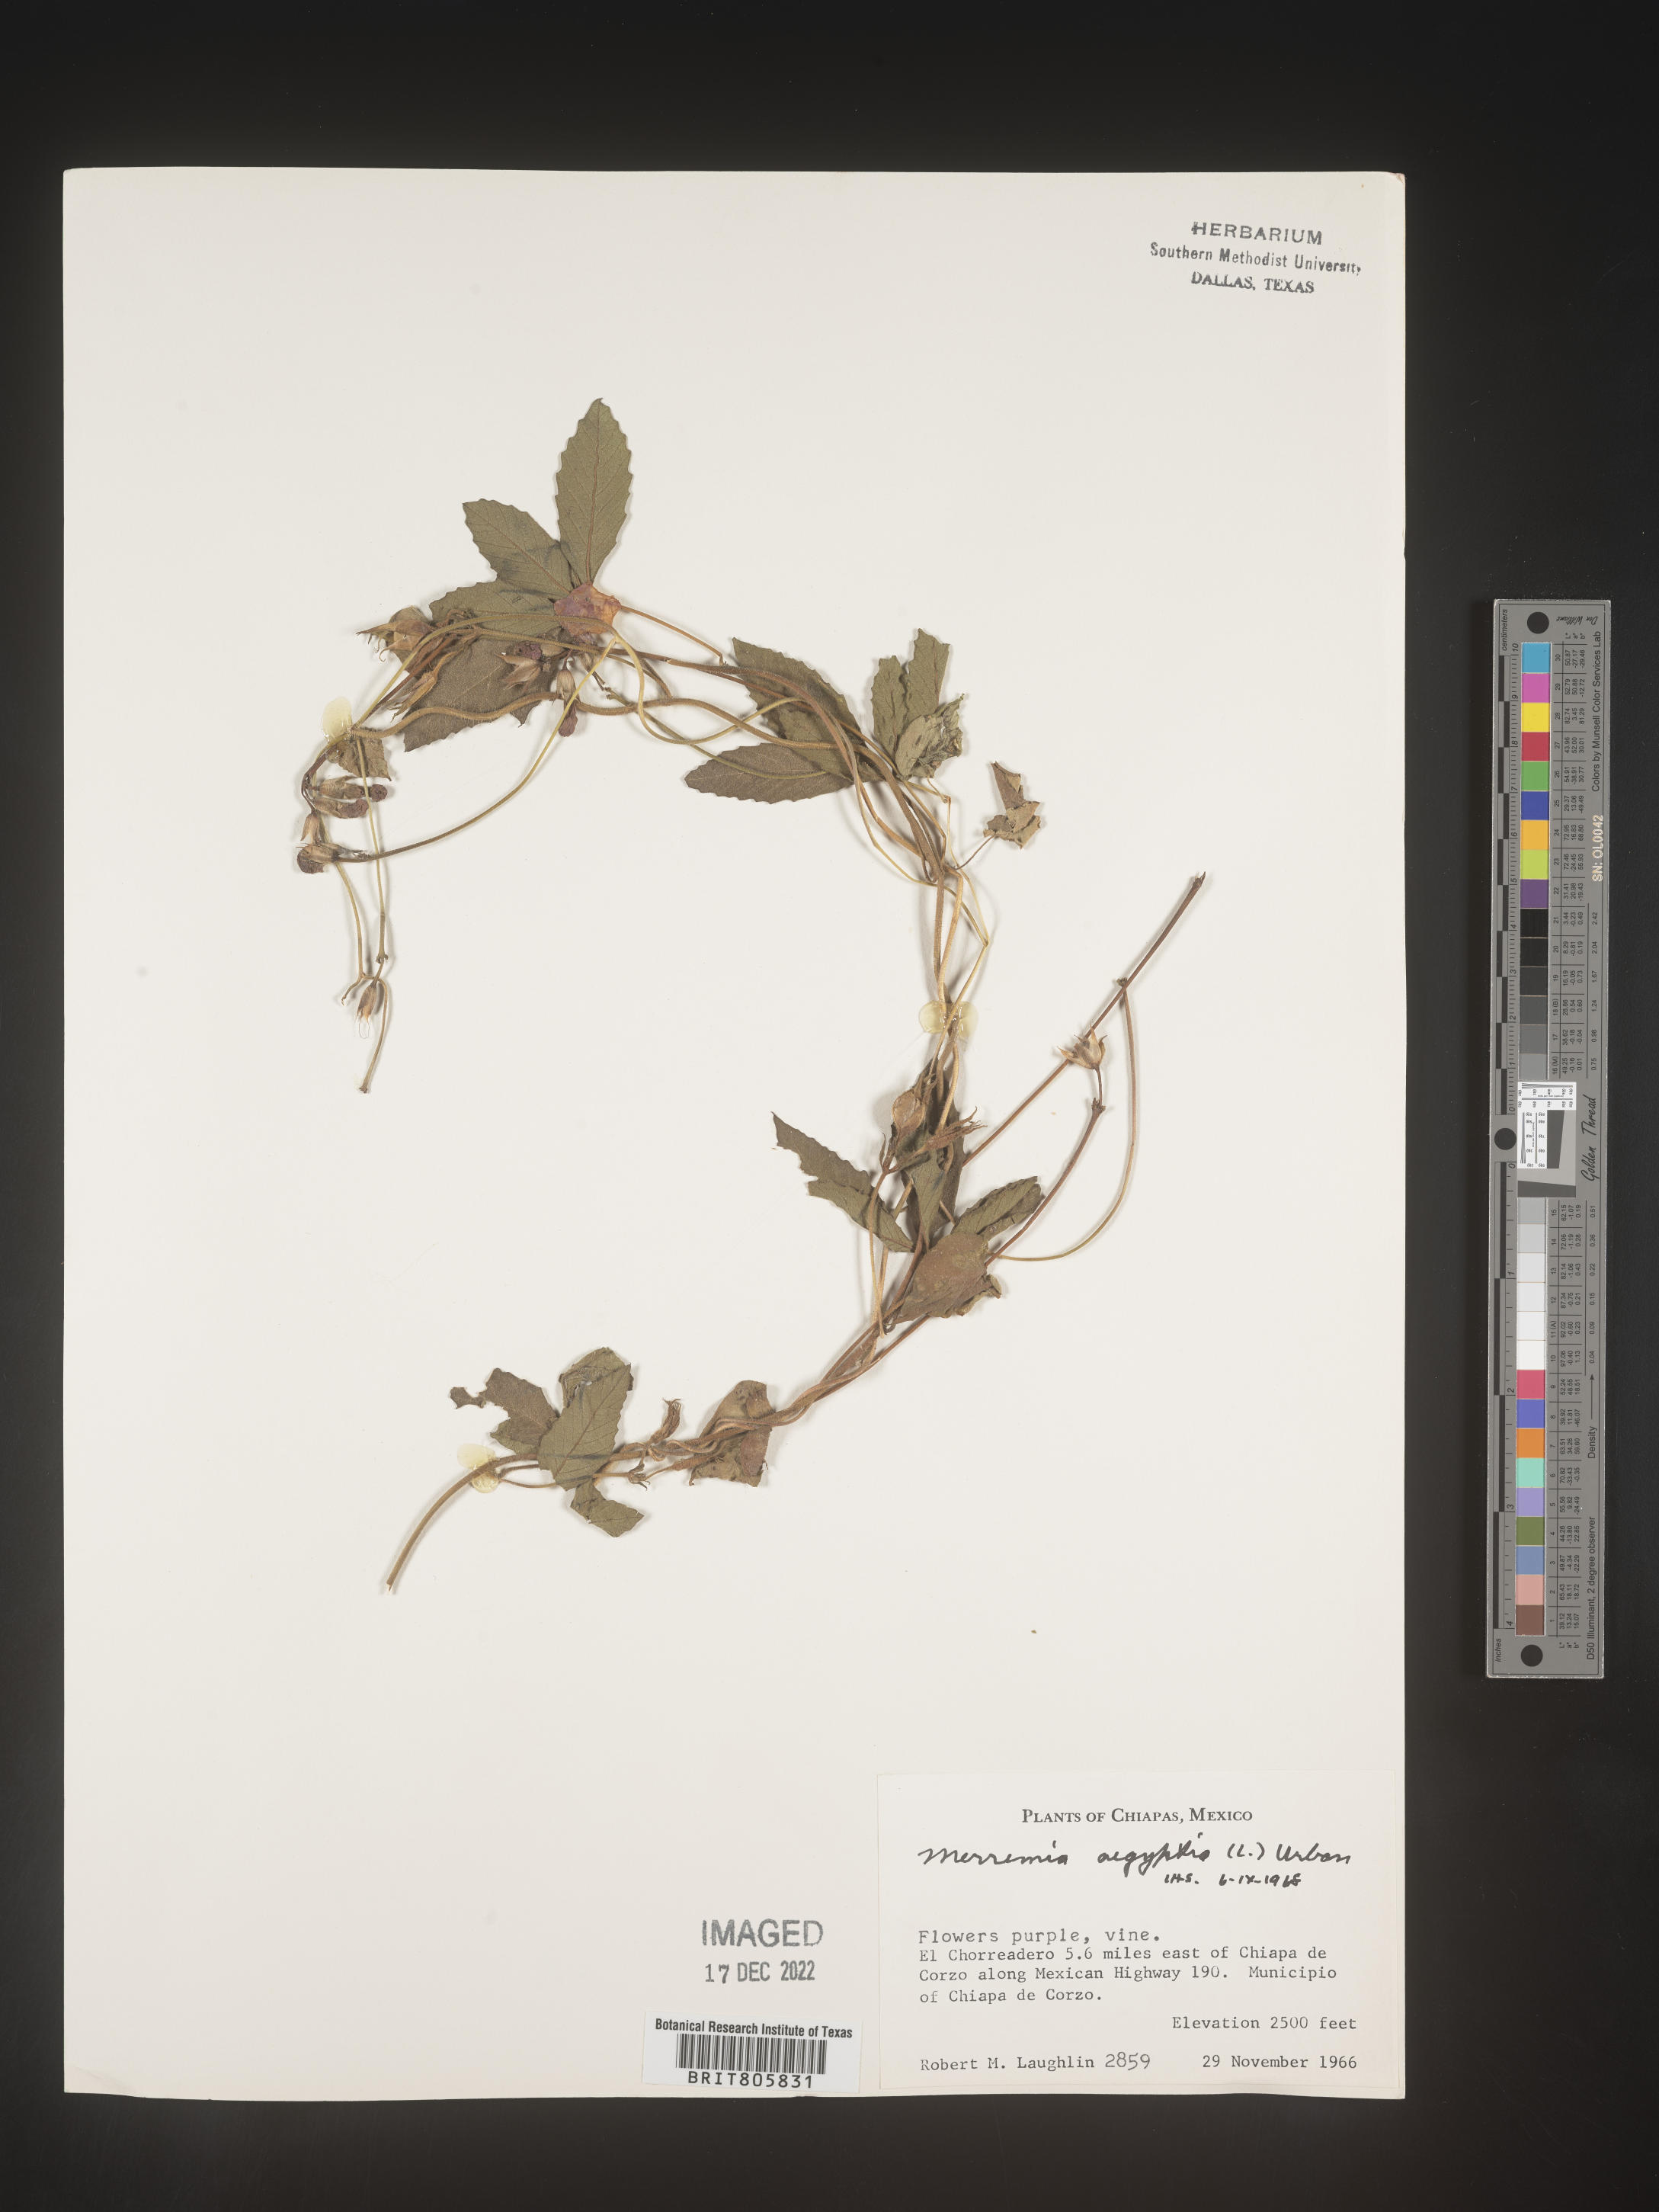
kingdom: Plantae
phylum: Tracheophyta
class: Magnoliopsida
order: Solanales
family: Convolvulaceae
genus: Merremia
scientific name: Merremia
